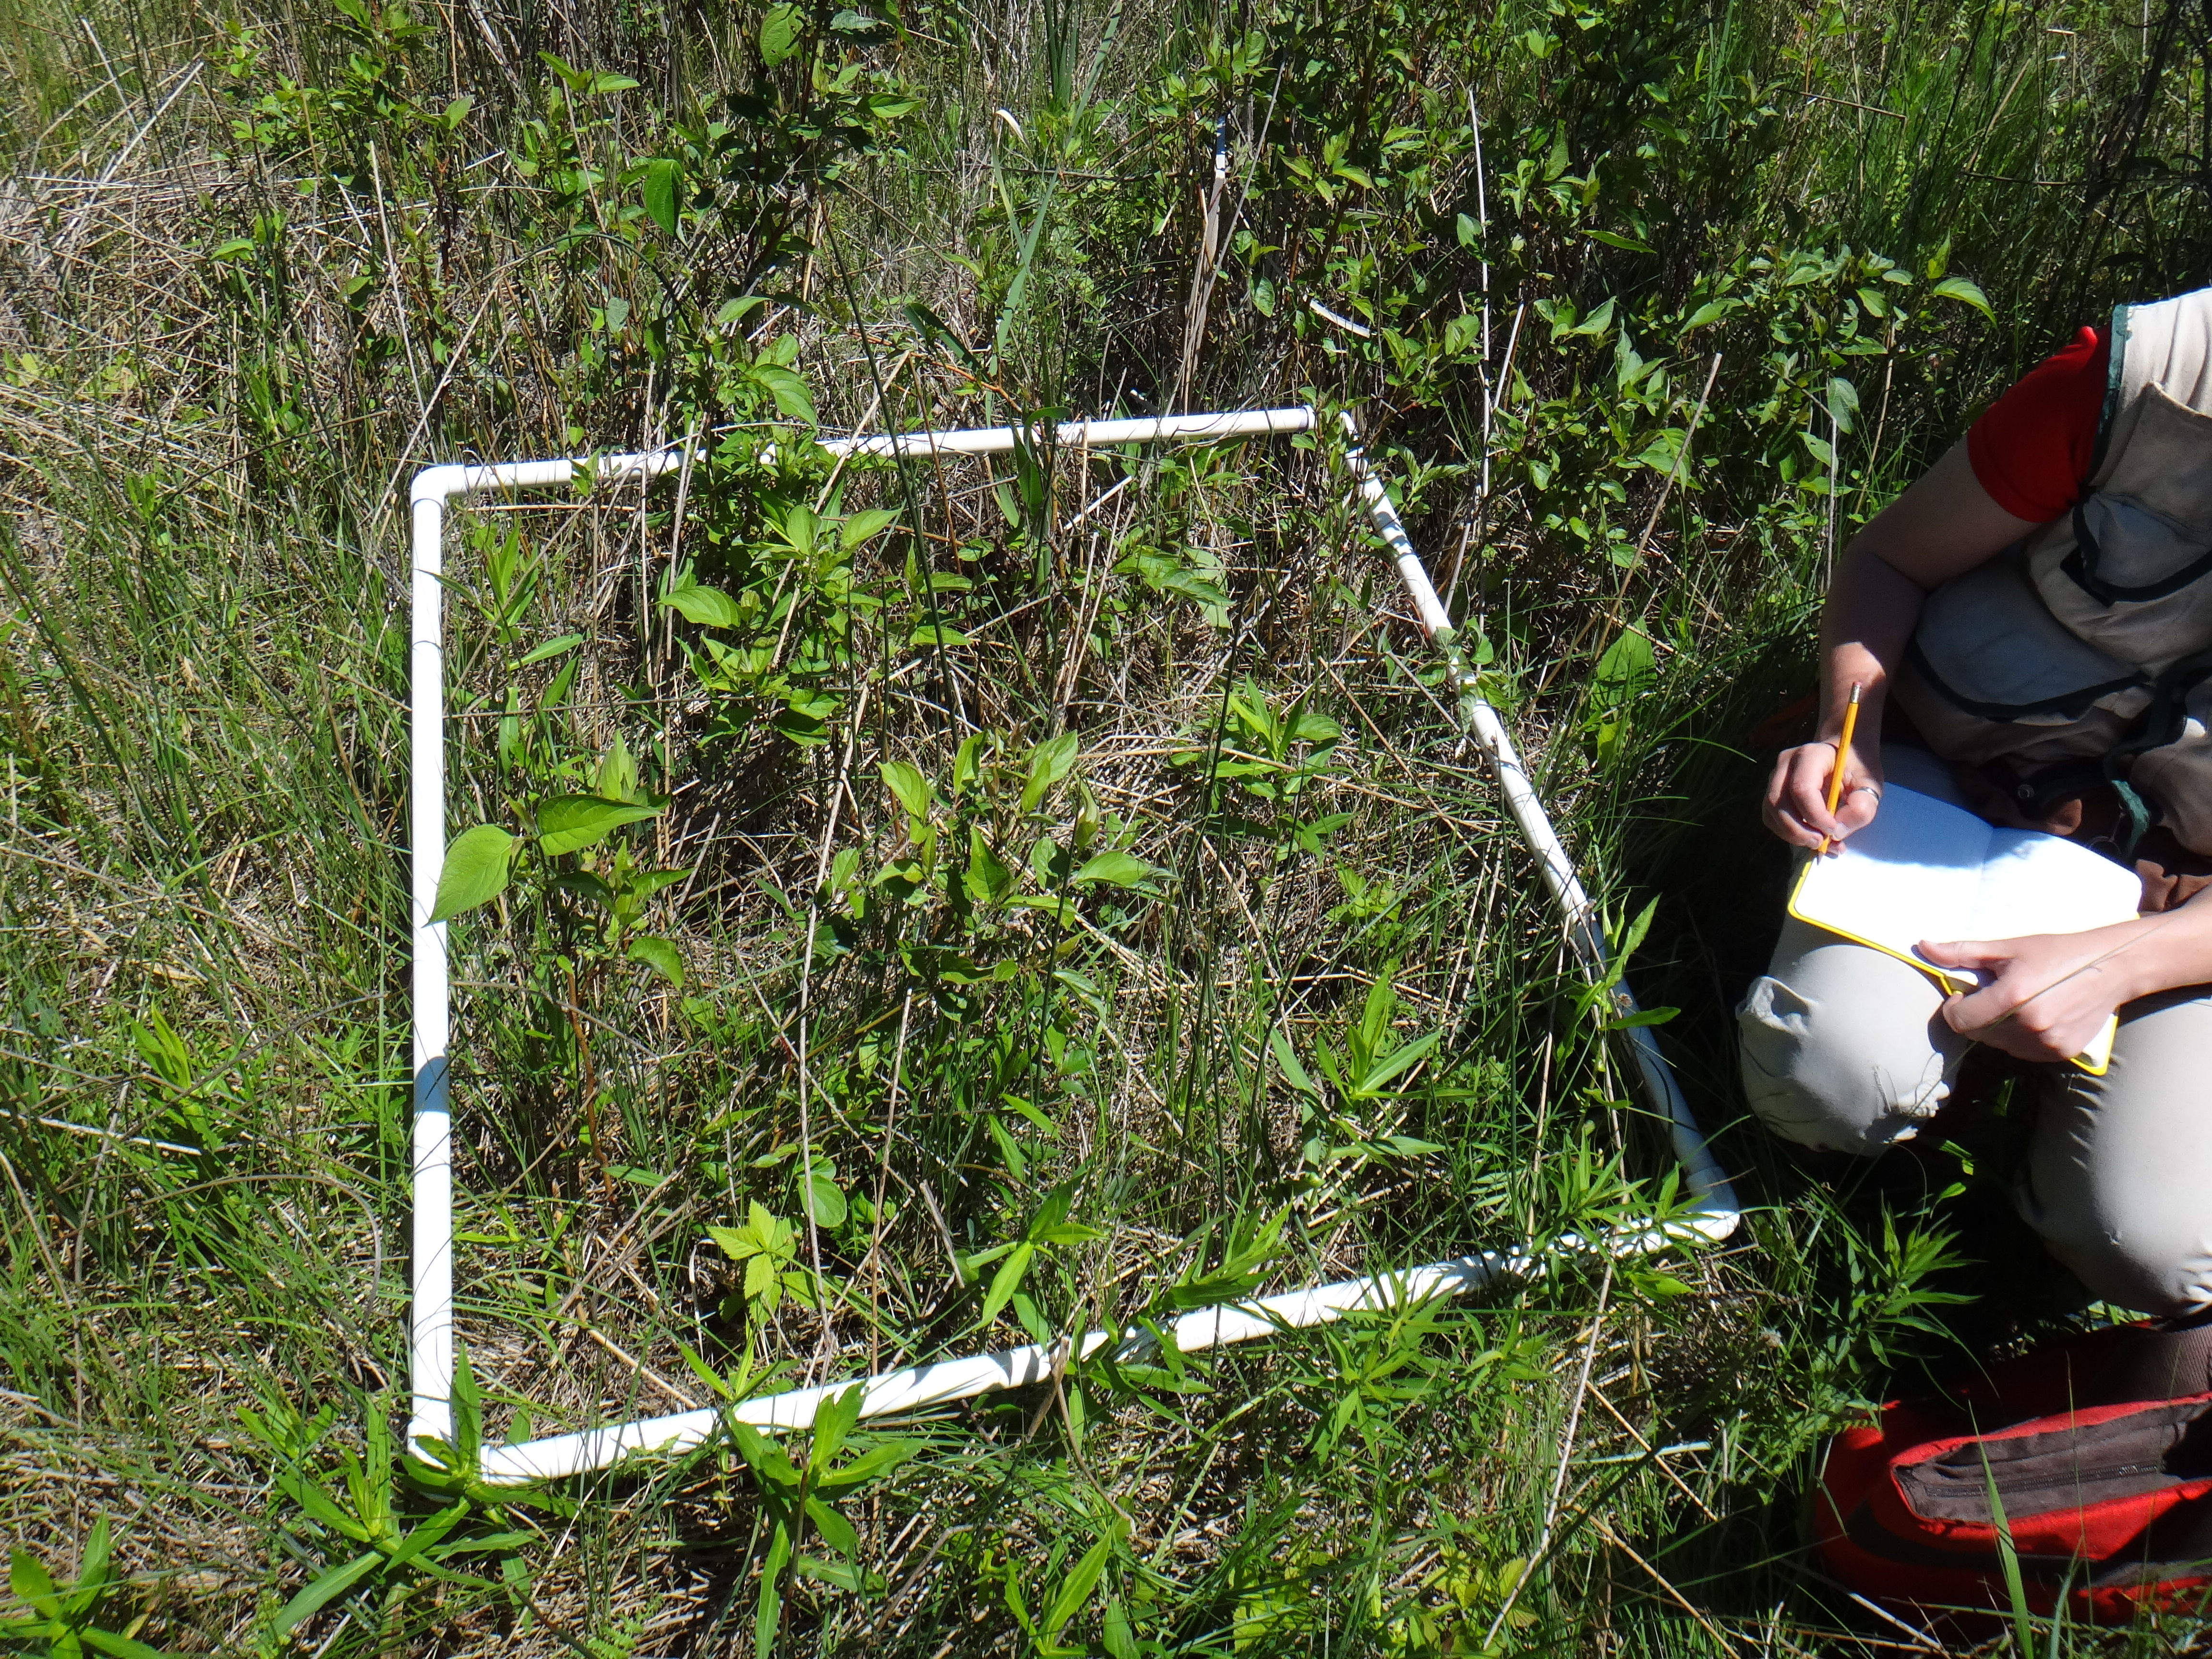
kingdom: Plantae
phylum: Tracheophyta
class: Magnoliopsida
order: Ranunculales
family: Ranunculaceae
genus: Thalictrum
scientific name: Thalictrum dasycarpum
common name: Purple meadow-rue
